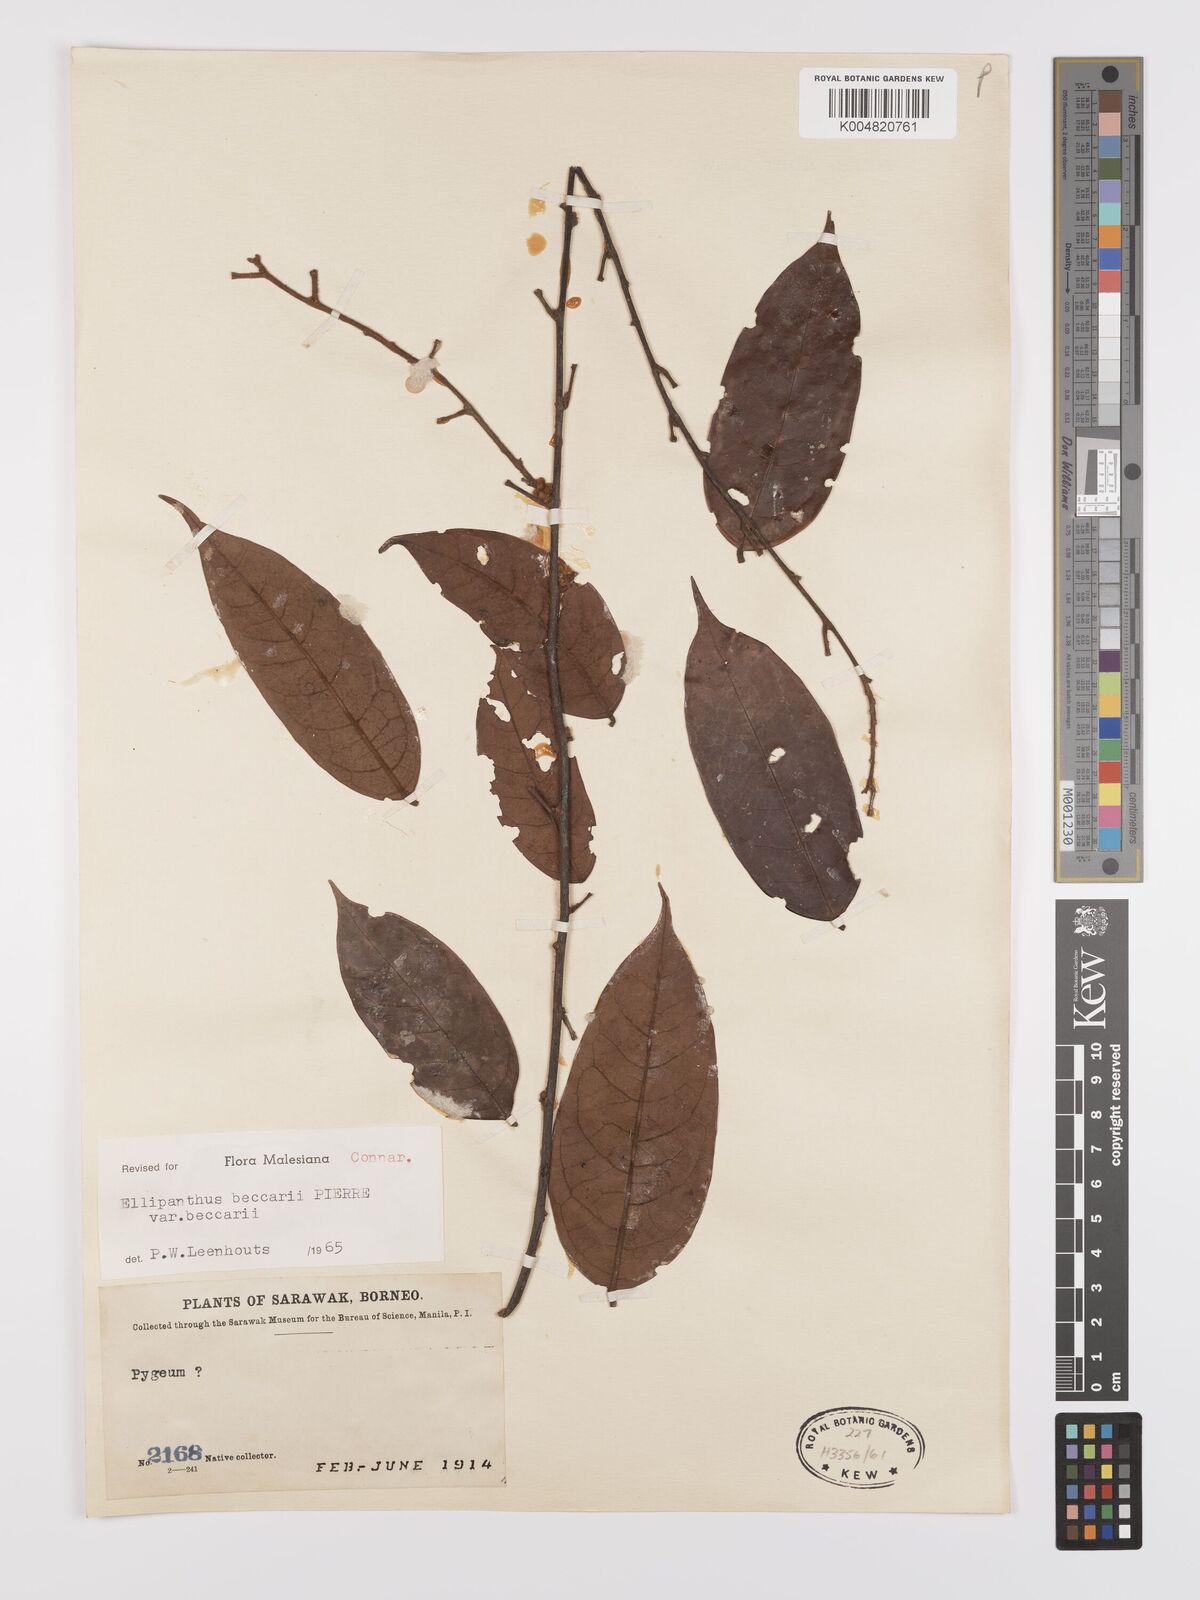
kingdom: Plantae
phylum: Tracheophyta
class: Magnoliopsida
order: Oxalidales
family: Connaraceae
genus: Ellipanthus
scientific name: Ellipanthus beccarii
